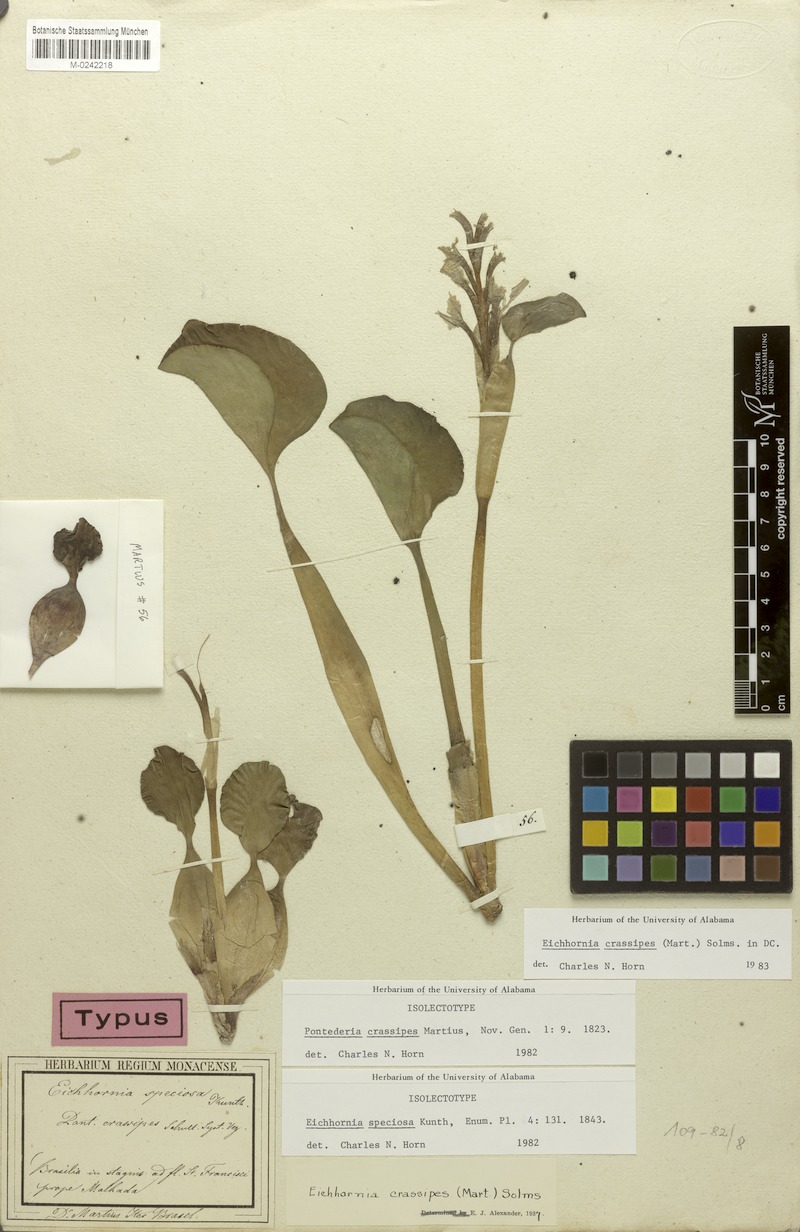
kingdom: Plantae
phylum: Tracheophyta
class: Liliopsida
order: Commelinales
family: Pontederiaceae
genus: Pontederia
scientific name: Pontederia crassipes
